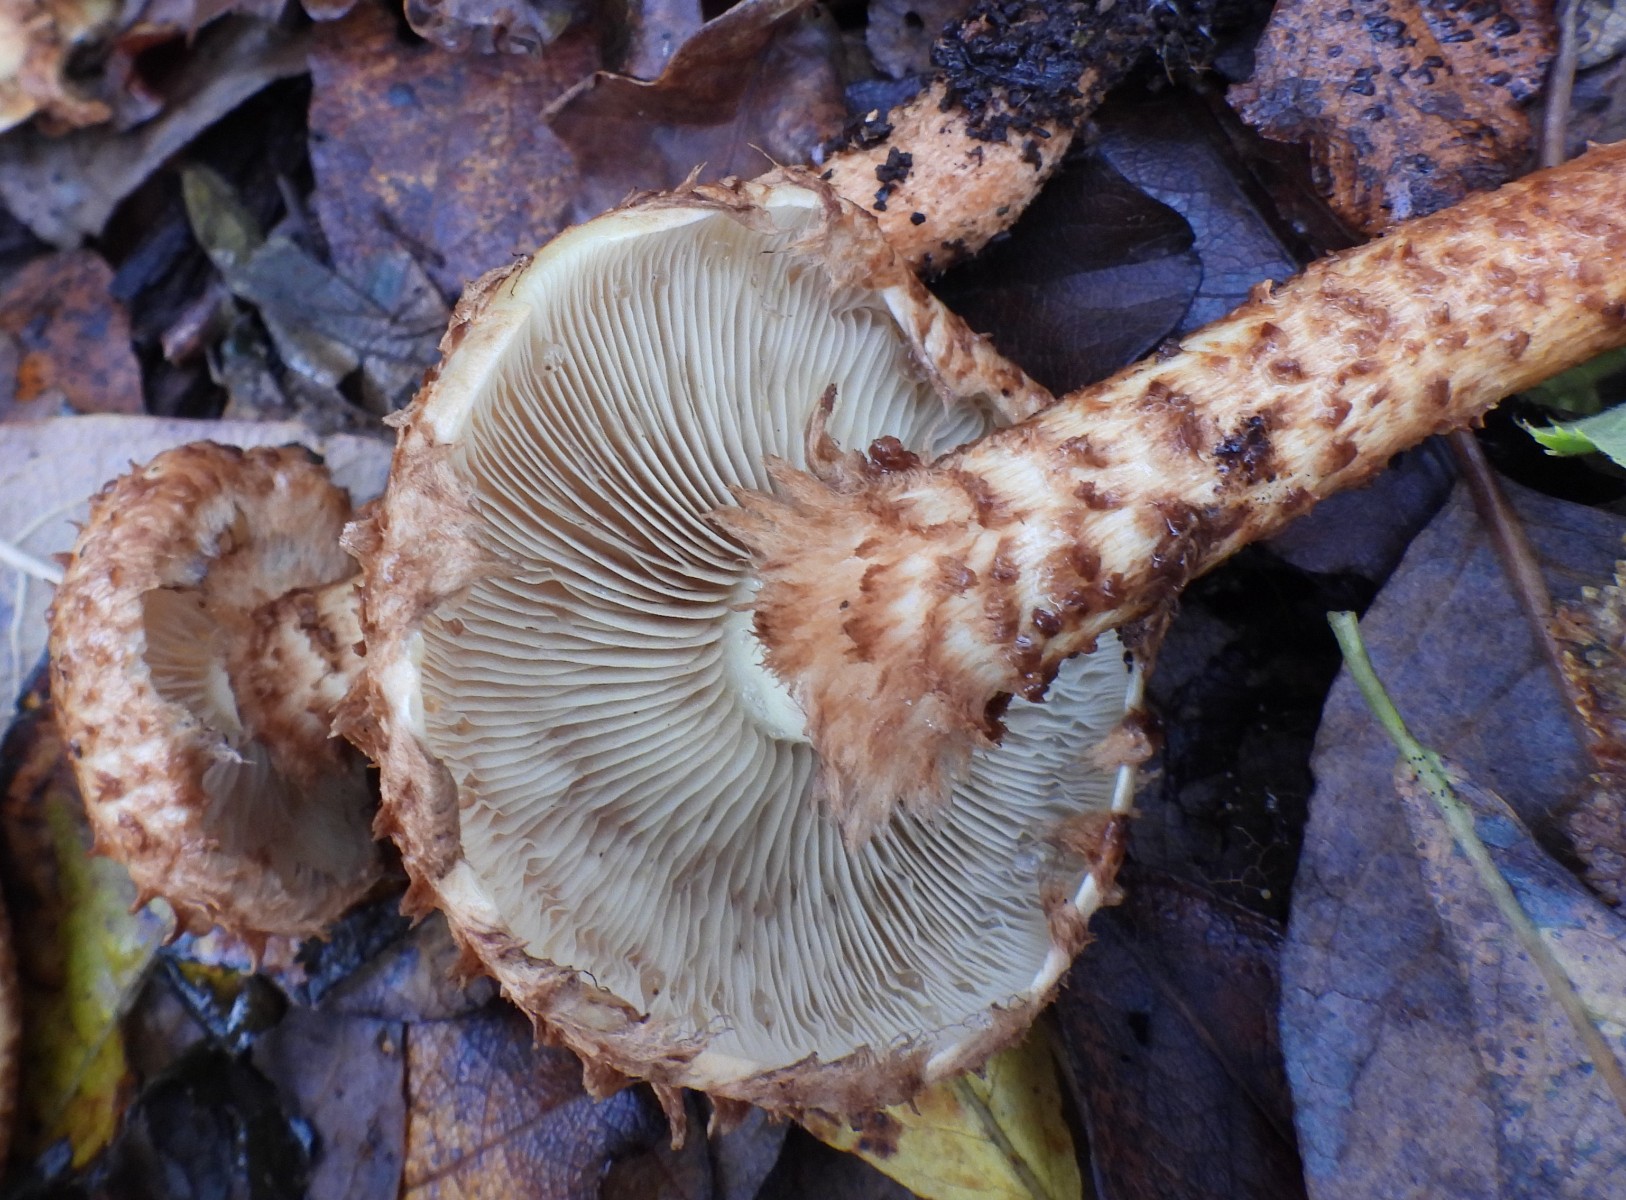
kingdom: Fungi
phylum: Basidiomycota
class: Agaricomycetes
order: Agaricales
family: Strophariaceae
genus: Pholiota
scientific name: Pholiota squarrosa
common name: krumskællet skælhat
